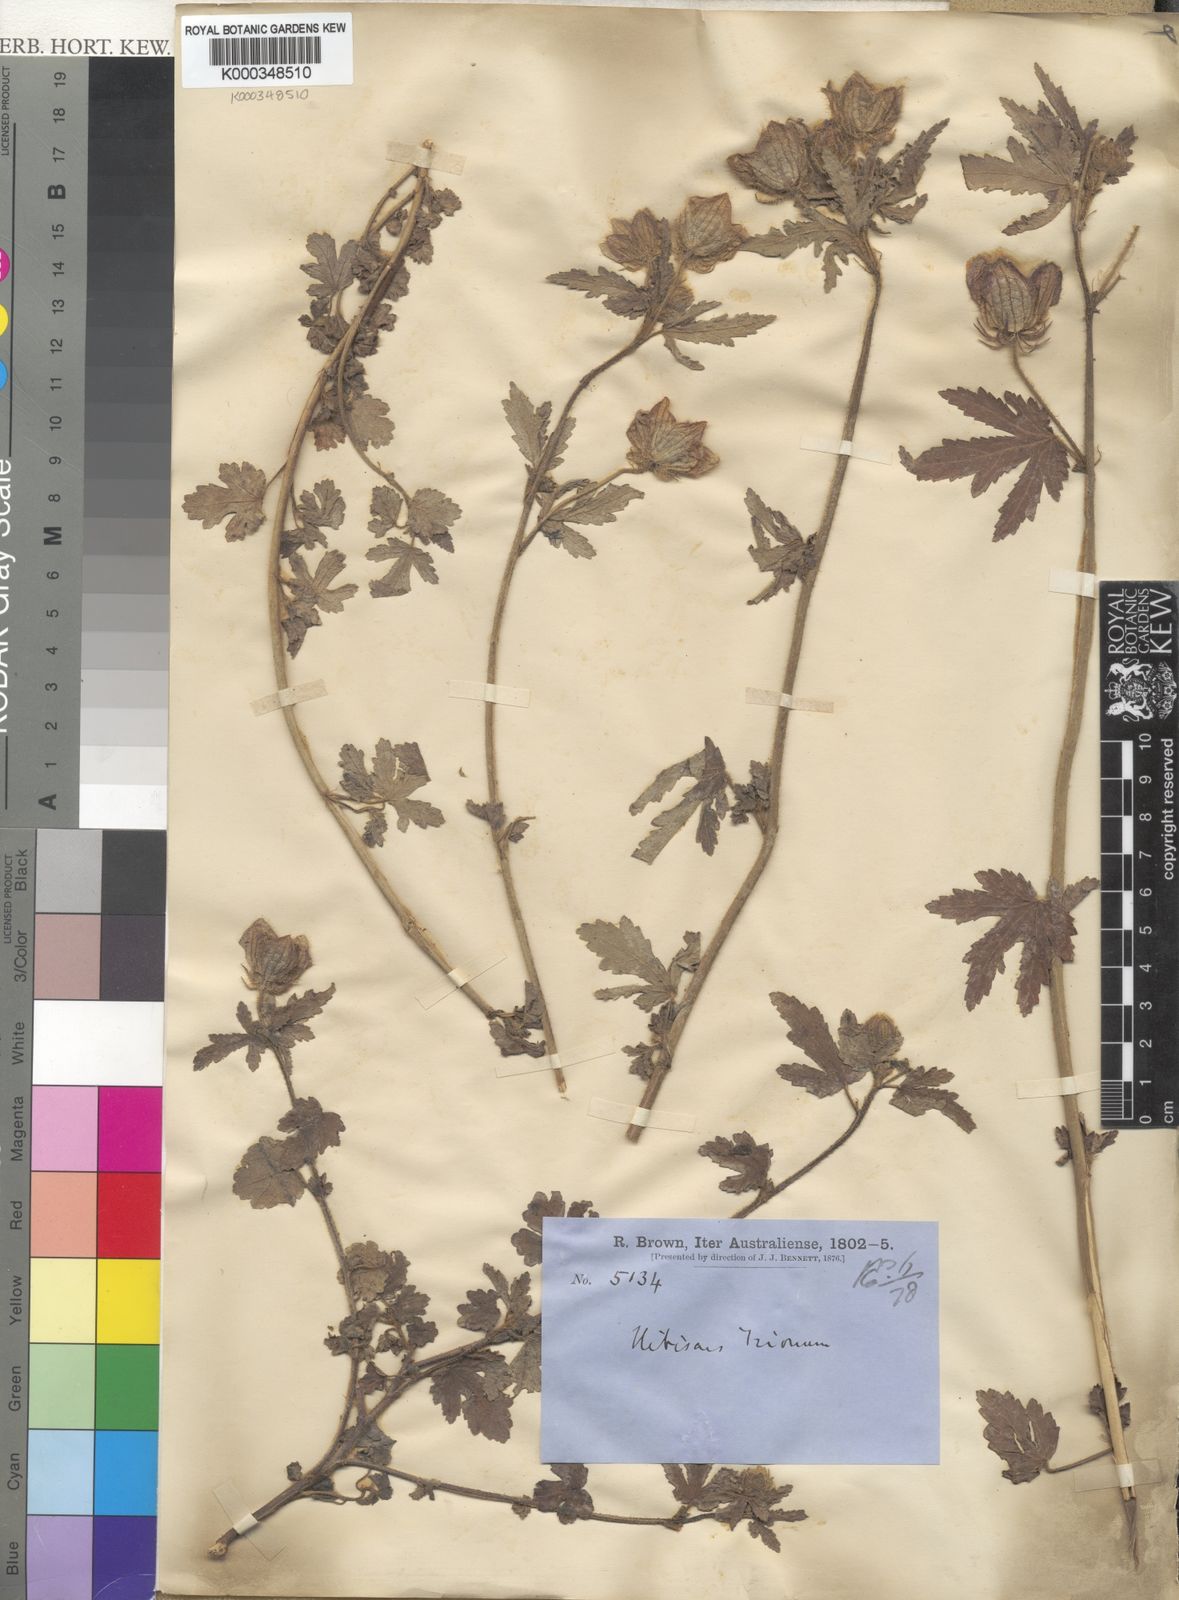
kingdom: Plantae
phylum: Tracheophyta
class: Magnoliopsida
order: Malvales
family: Malvaceae
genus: Hibiscus
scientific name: Hibiscus trionum
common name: Bladder ketmia
